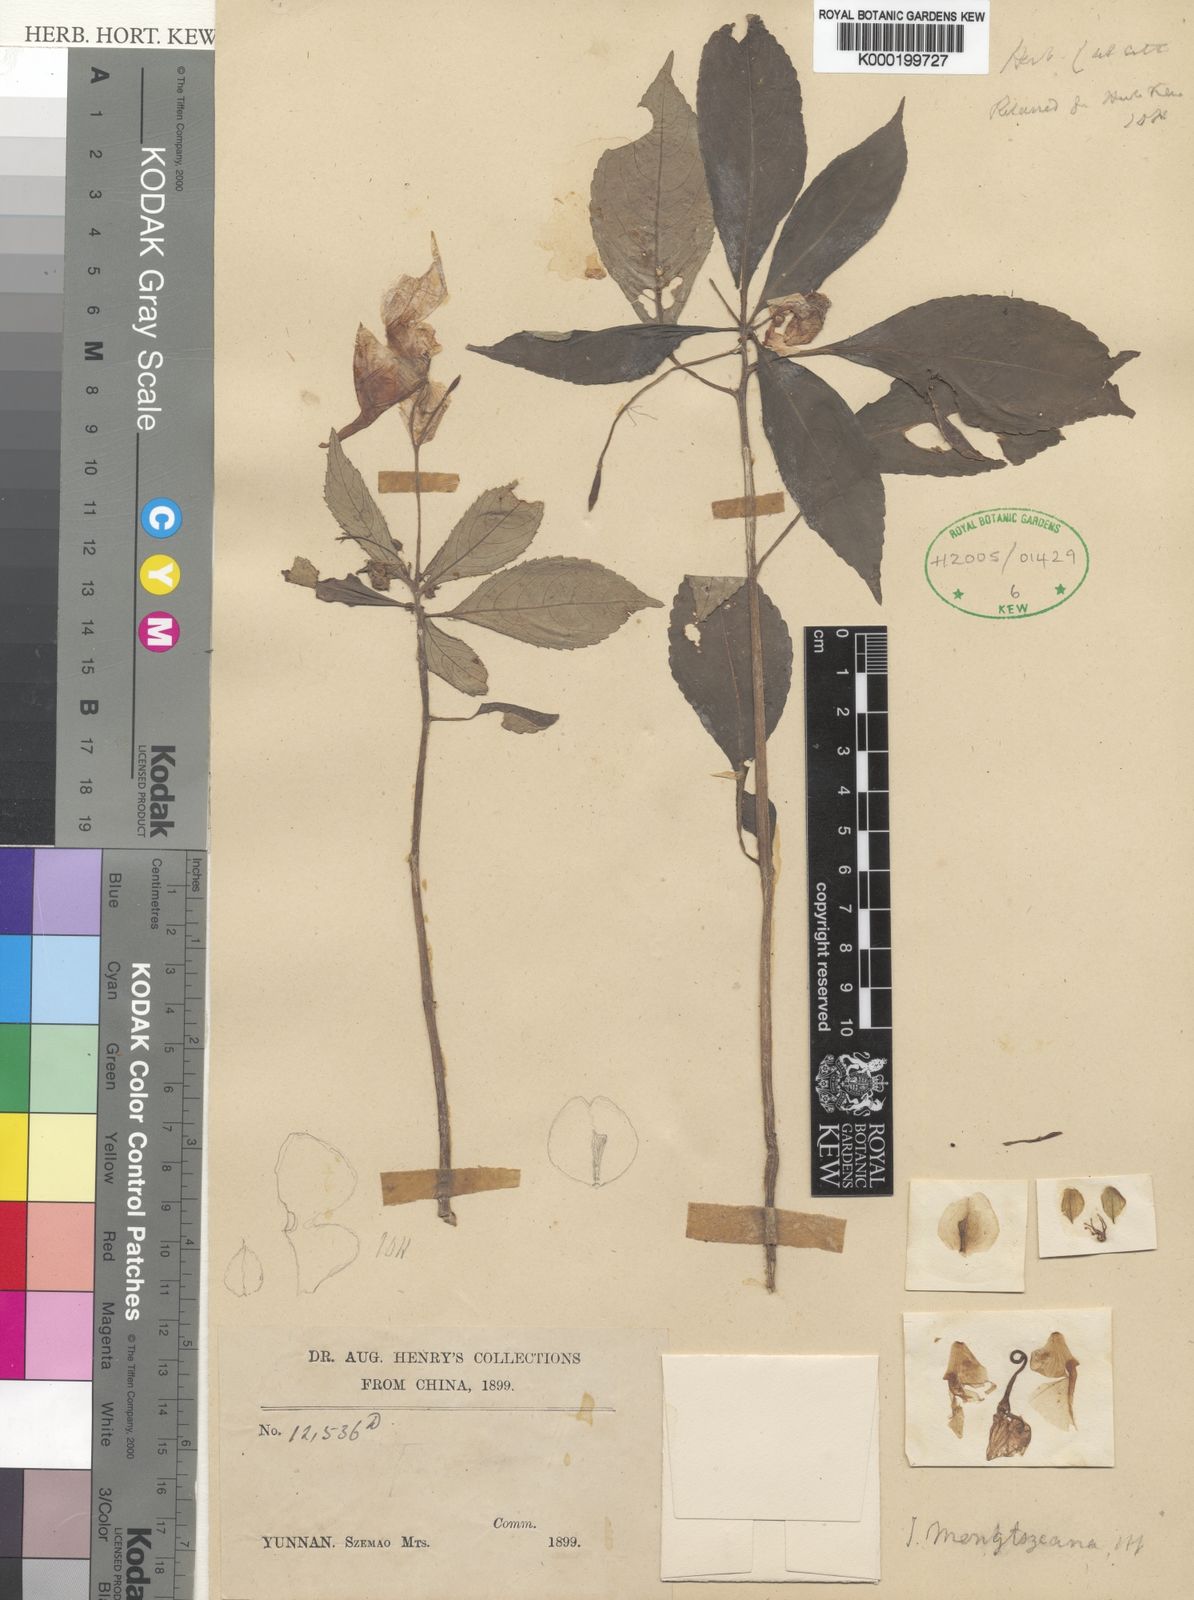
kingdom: Plantae
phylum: Tracheophyta
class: Magnoliopsida
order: Ericales
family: Balsaminaceae
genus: Impatiens
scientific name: Impatiens pulchra
